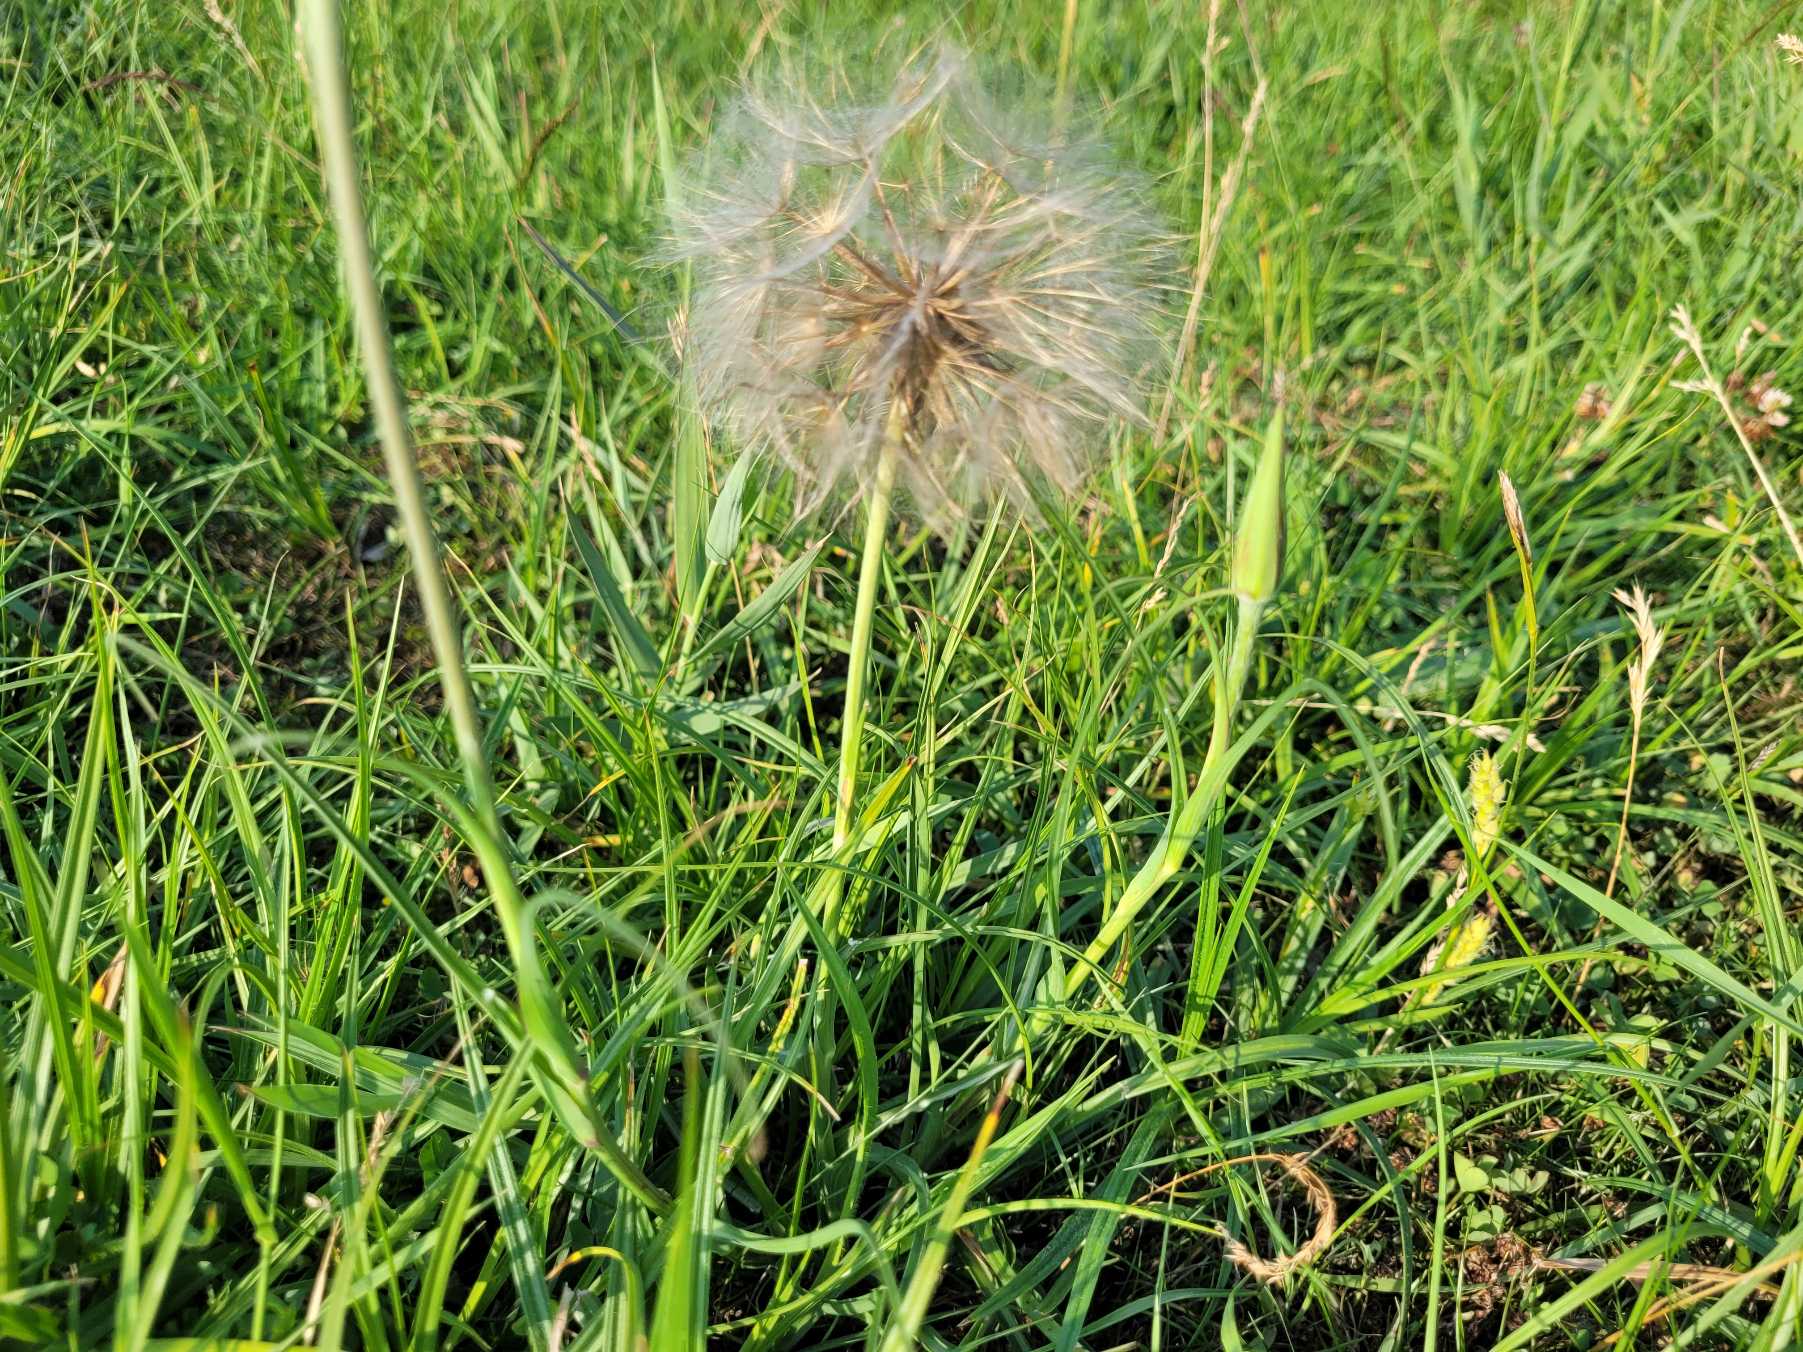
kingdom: Plantae
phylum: Tracheophyta
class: Magnoliopsida
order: Asterales
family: Asteraceae
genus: Tragopogon
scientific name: Tragopogon pratensis
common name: Gedeskæg
